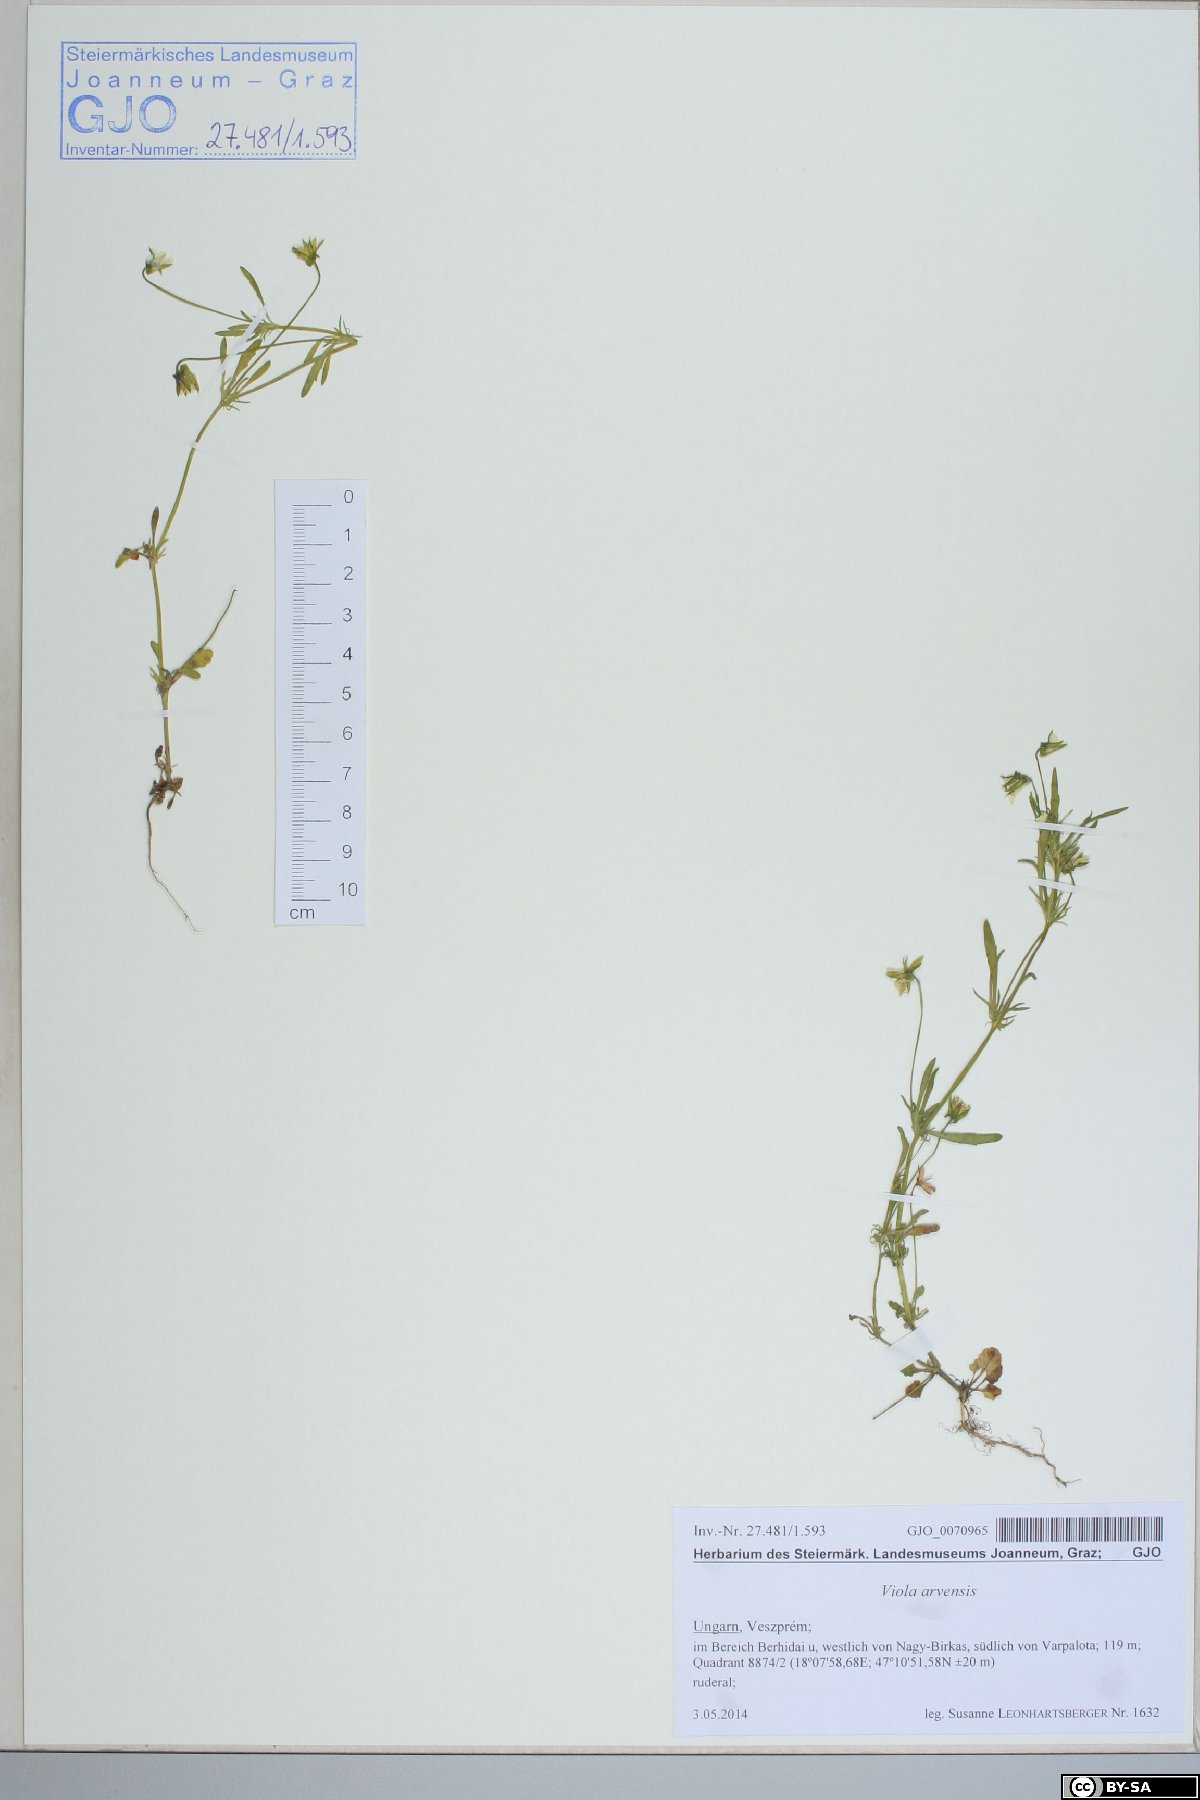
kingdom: Plantae
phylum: Tracheophyta
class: Magnoliopsida
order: Malpighiales
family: Violaceae
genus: Viola
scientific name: Viola arvensis
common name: Field pansy
